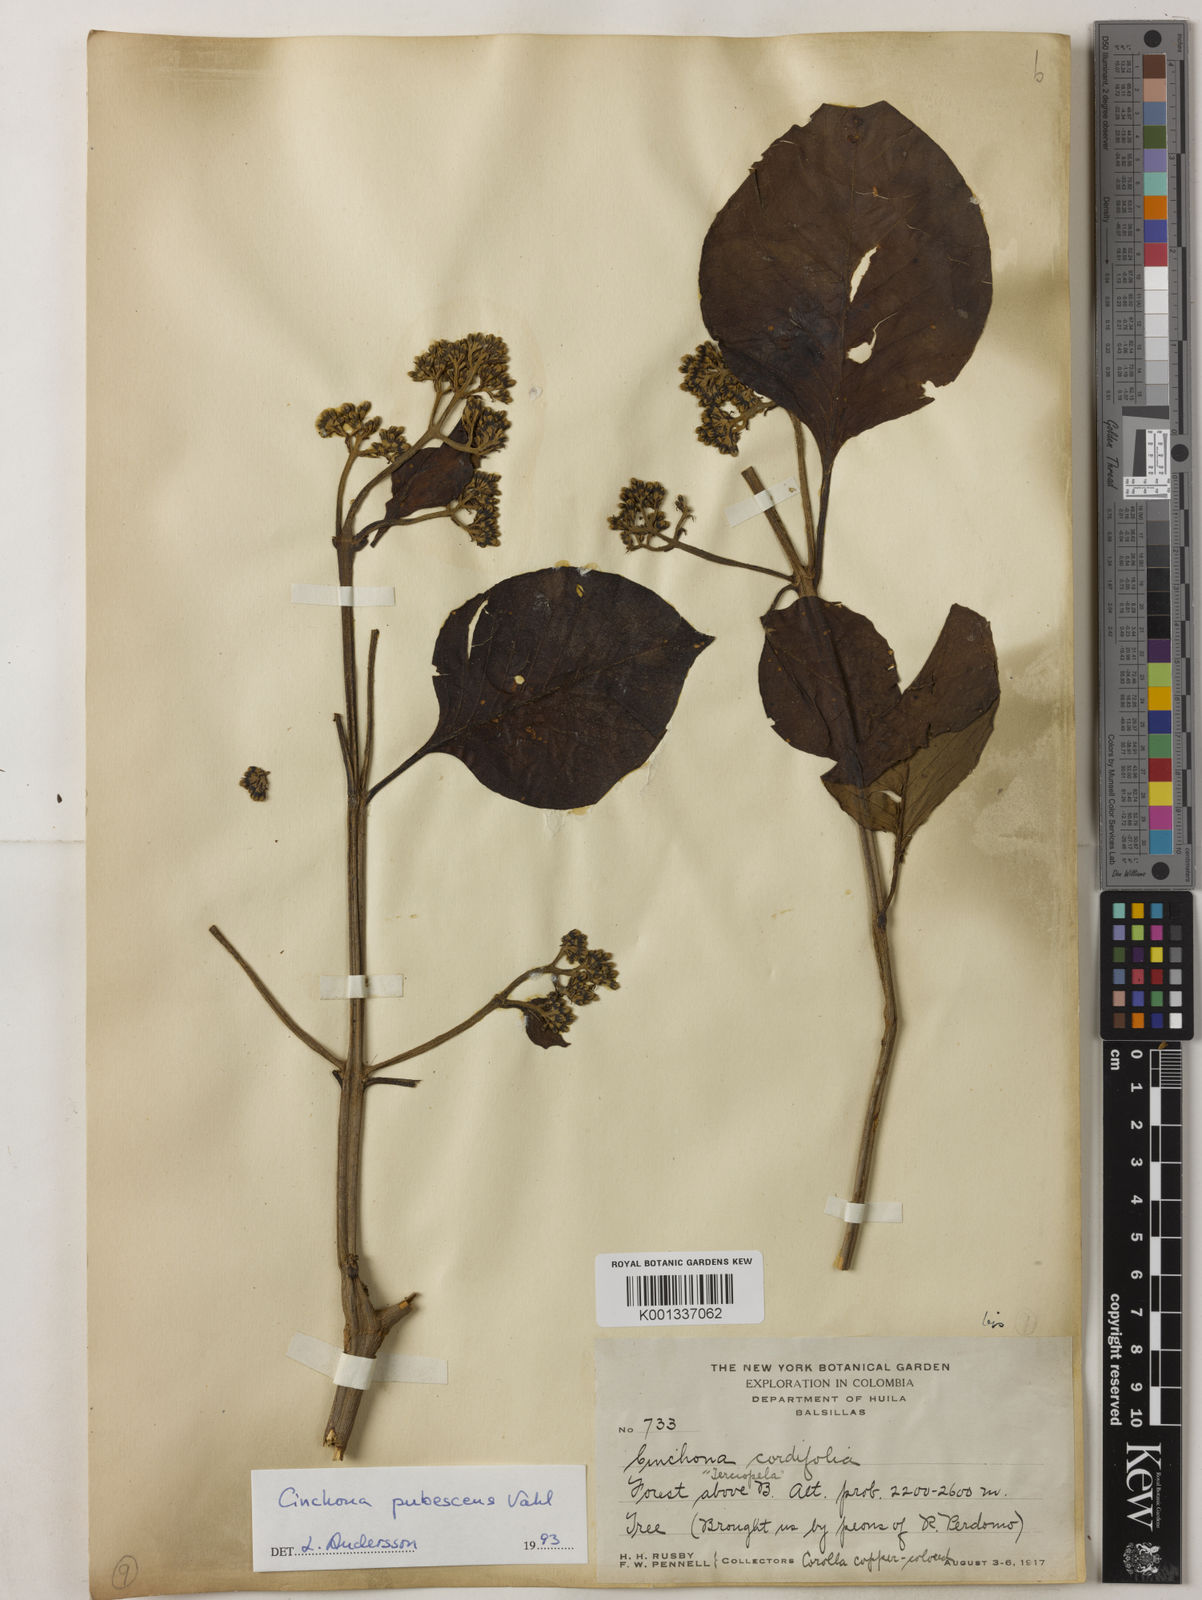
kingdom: Plantae
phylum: Tracheophyta
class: Magnoliopsida
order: Gentianales
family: Rubiaceae
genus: Cinchona
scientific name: Cinchona pubescens
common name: Quinine
